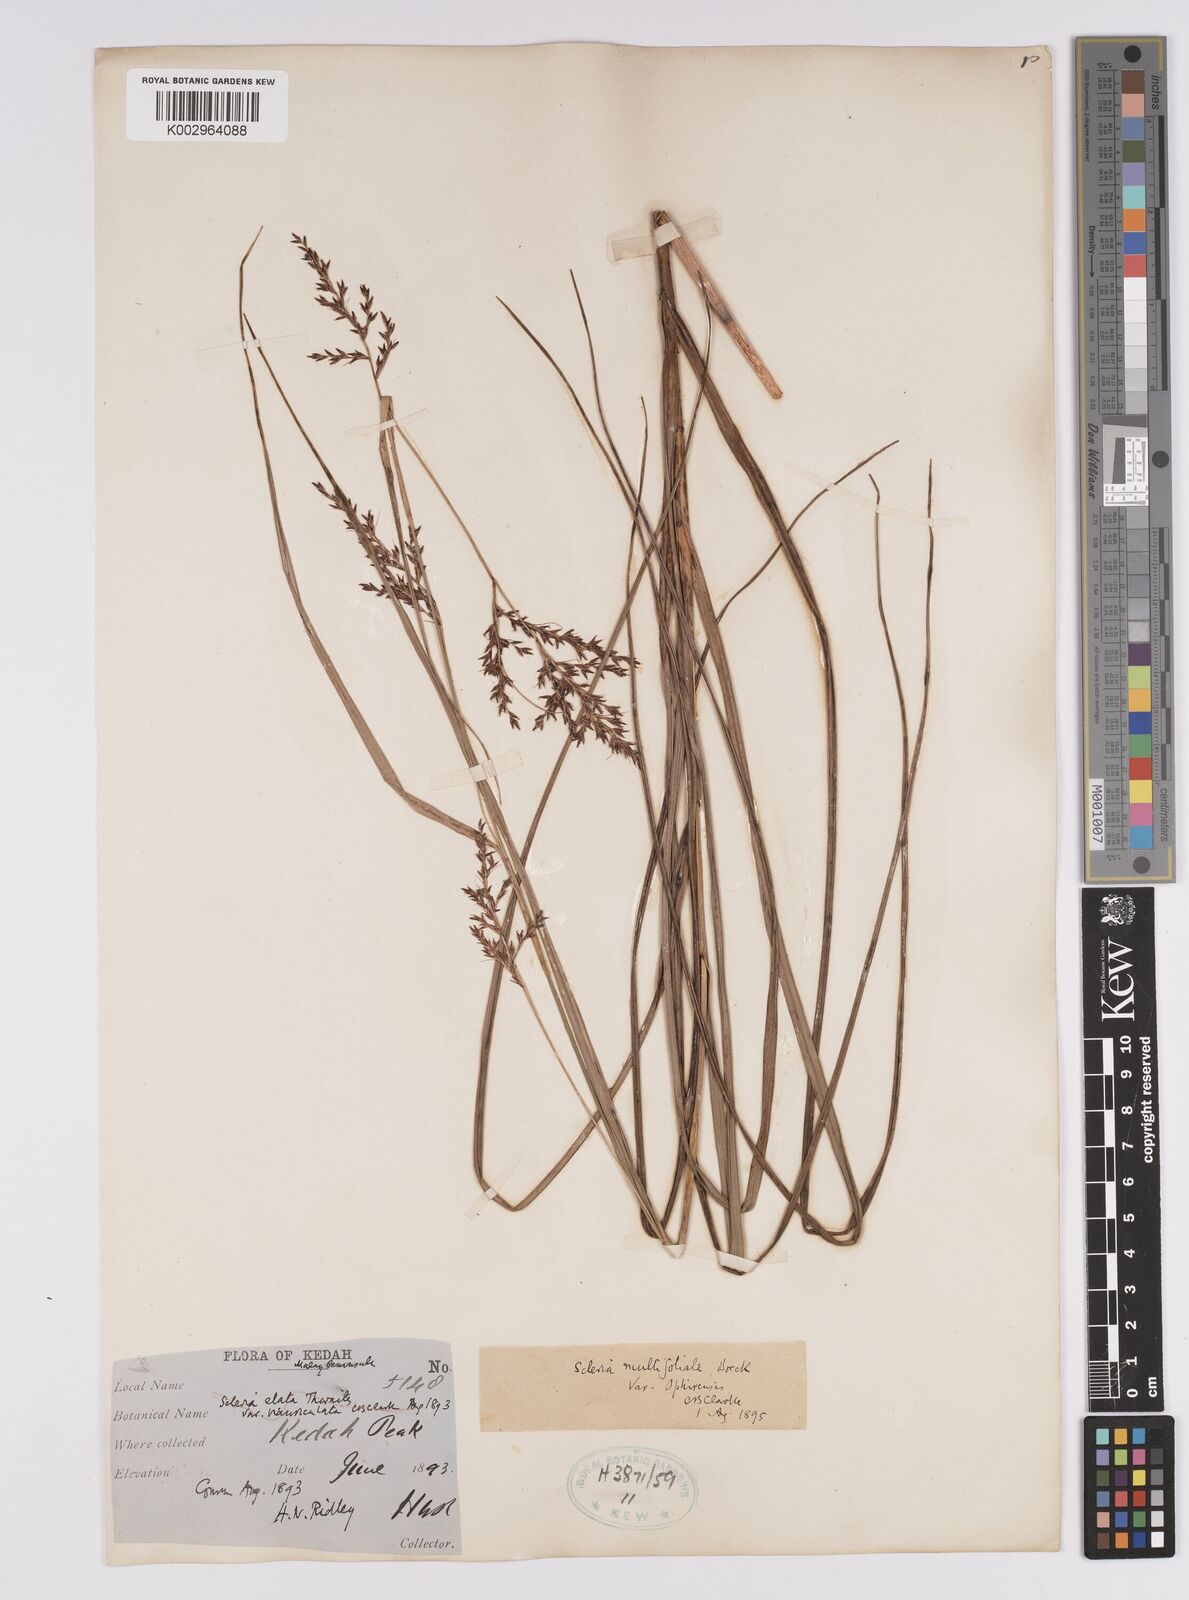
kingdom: Plantae
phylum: Tracheophyta
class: Liliopsida
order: Poales
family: Cyperaceae
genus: Scleria
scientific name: Scleria purpurascens
